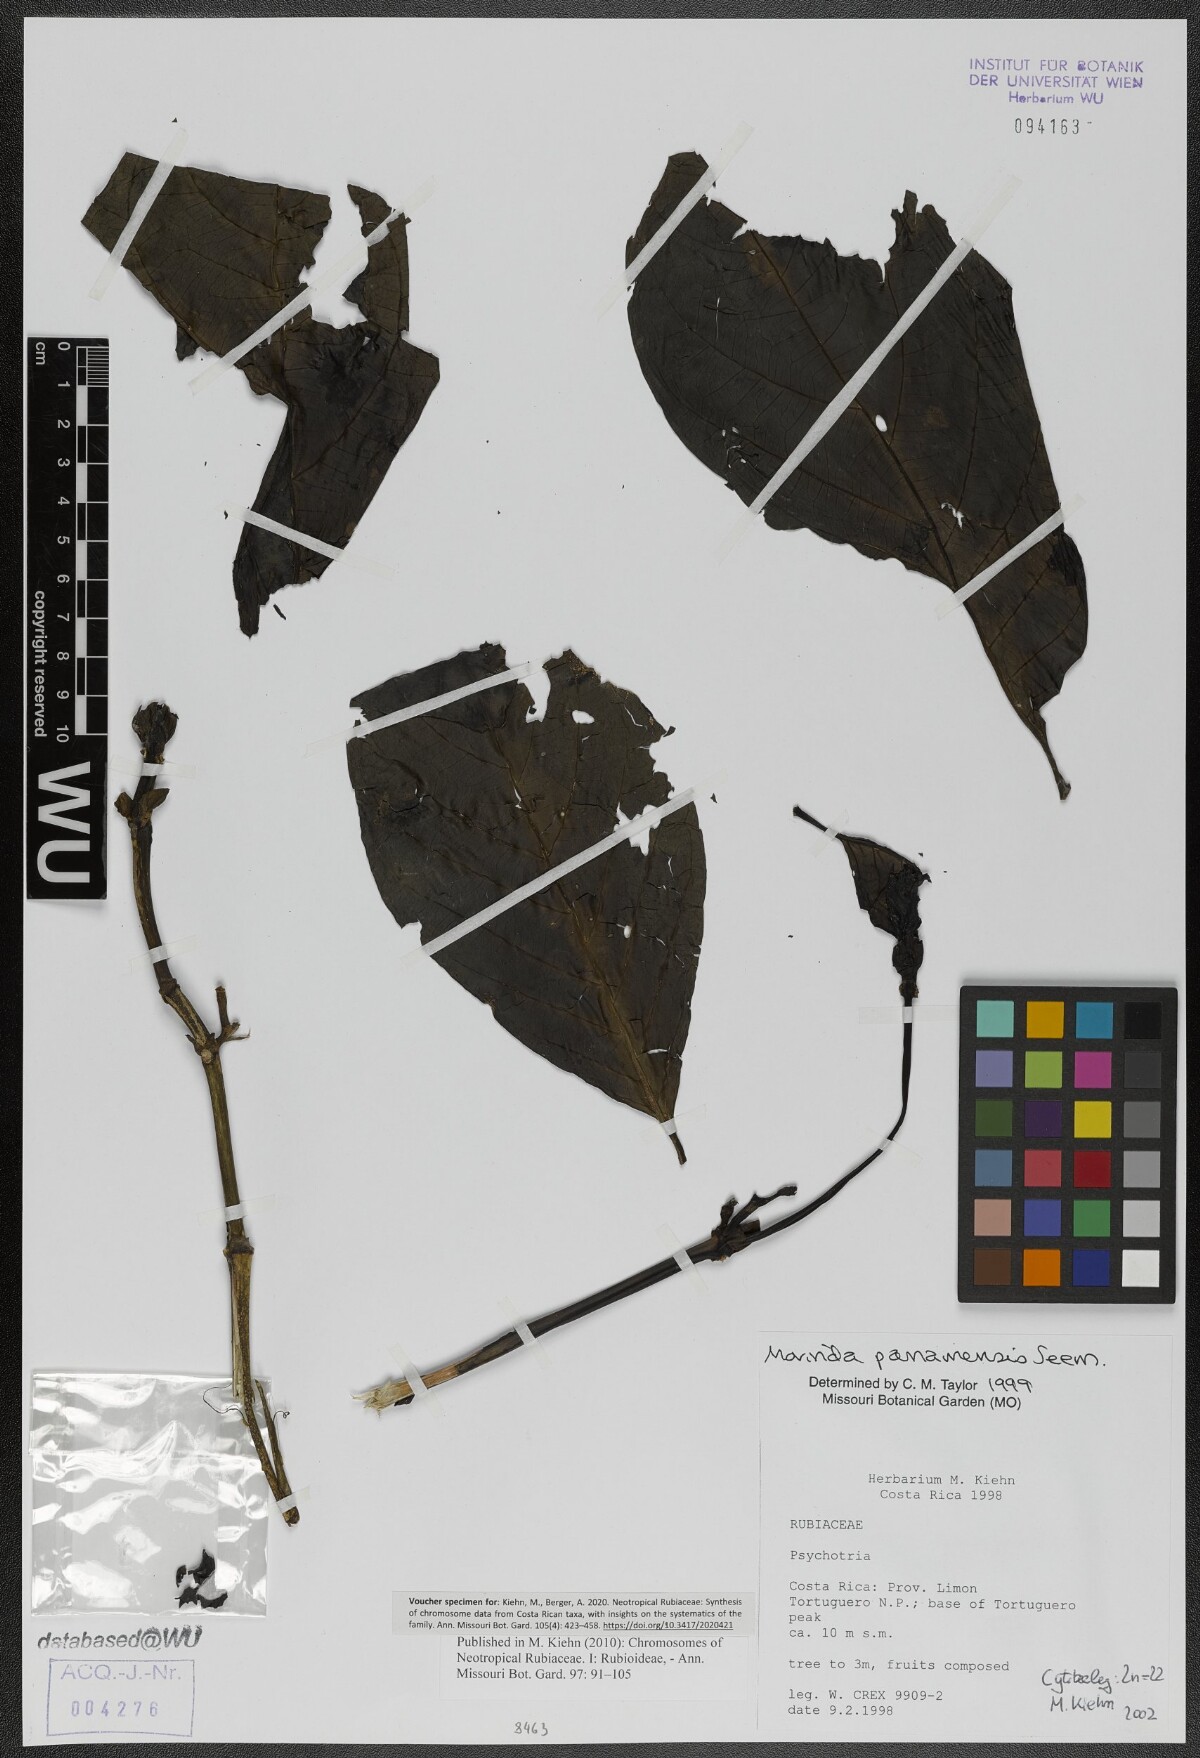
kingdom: Plantae
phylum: Tracheophyta
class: Magnoliopsida
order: Gentianales
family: Rubiaceae
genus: Morinda
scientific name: Morinda panamensis
